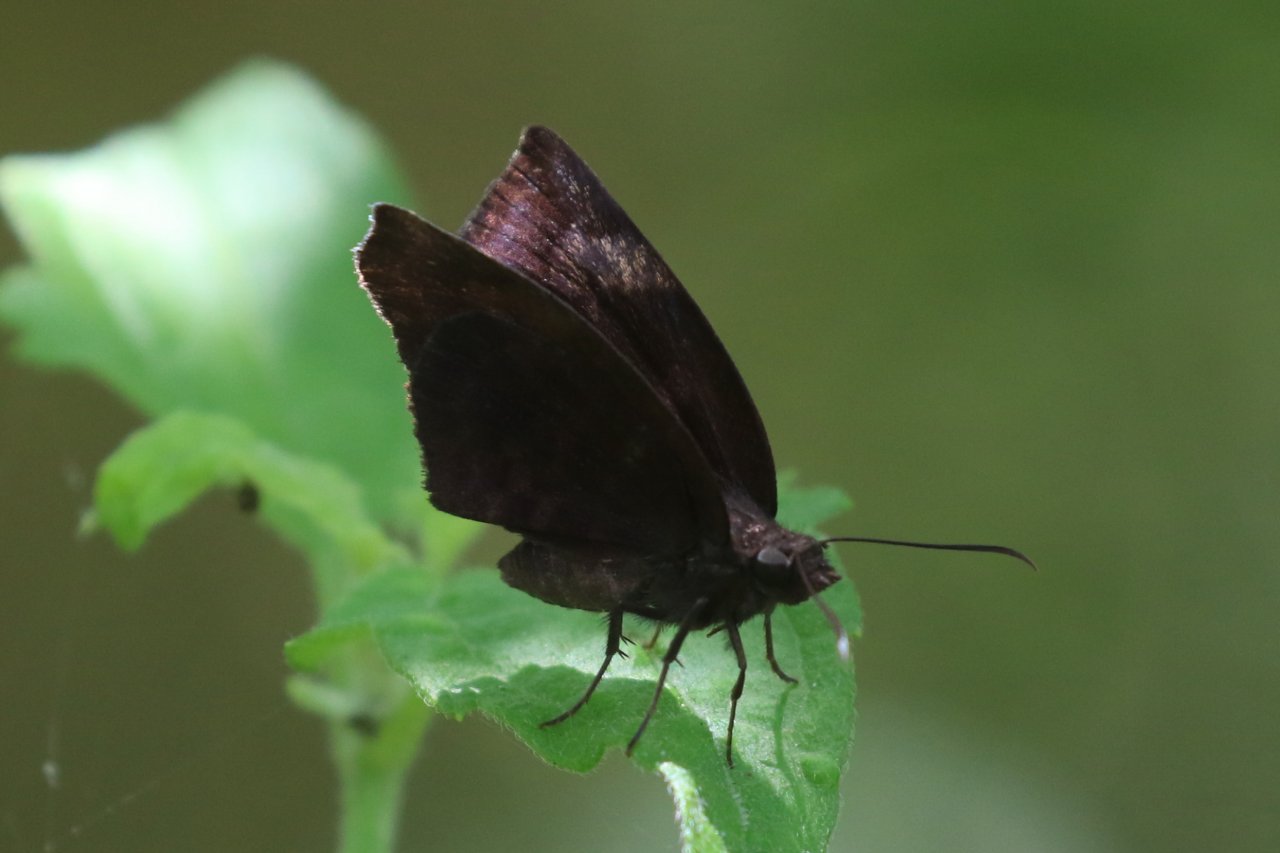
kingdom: Animalia
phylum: Arthropoda
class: Insecta
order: Lepidoptera
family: Hesperiidae
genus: Achlyodes
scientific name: Achlyodes thraso
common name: Sickle-winged Skipper
